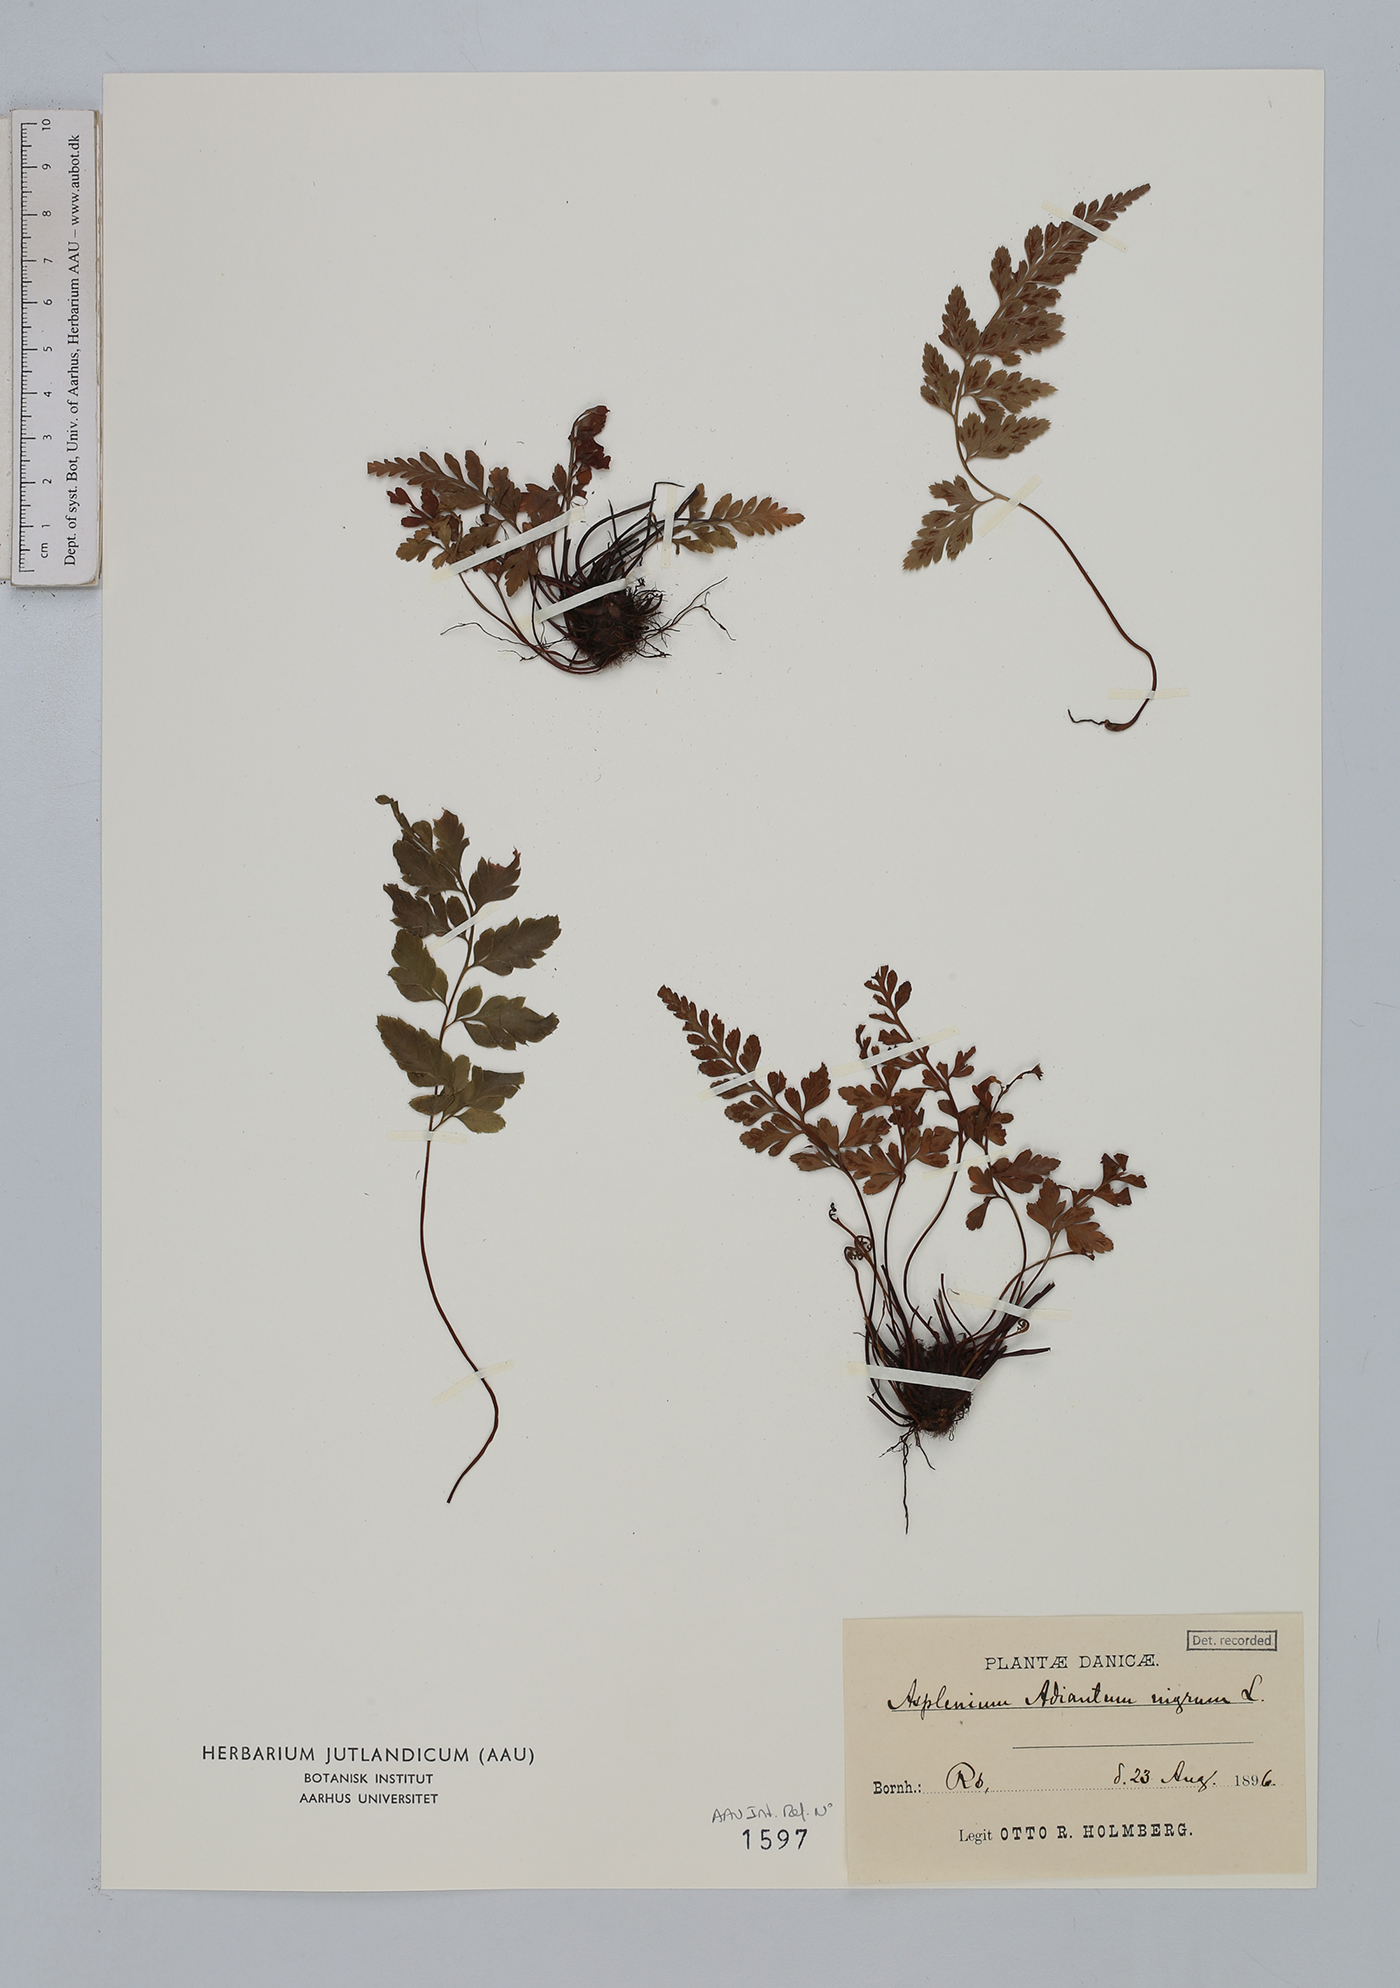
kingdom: Plantae
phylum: Tracheophyta
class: Polypodiopsida
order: Polypodiales
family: Aspleniaceae
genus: Asplenium
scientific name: Asplenium adiantum-nigrum
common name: Black spleenwort
